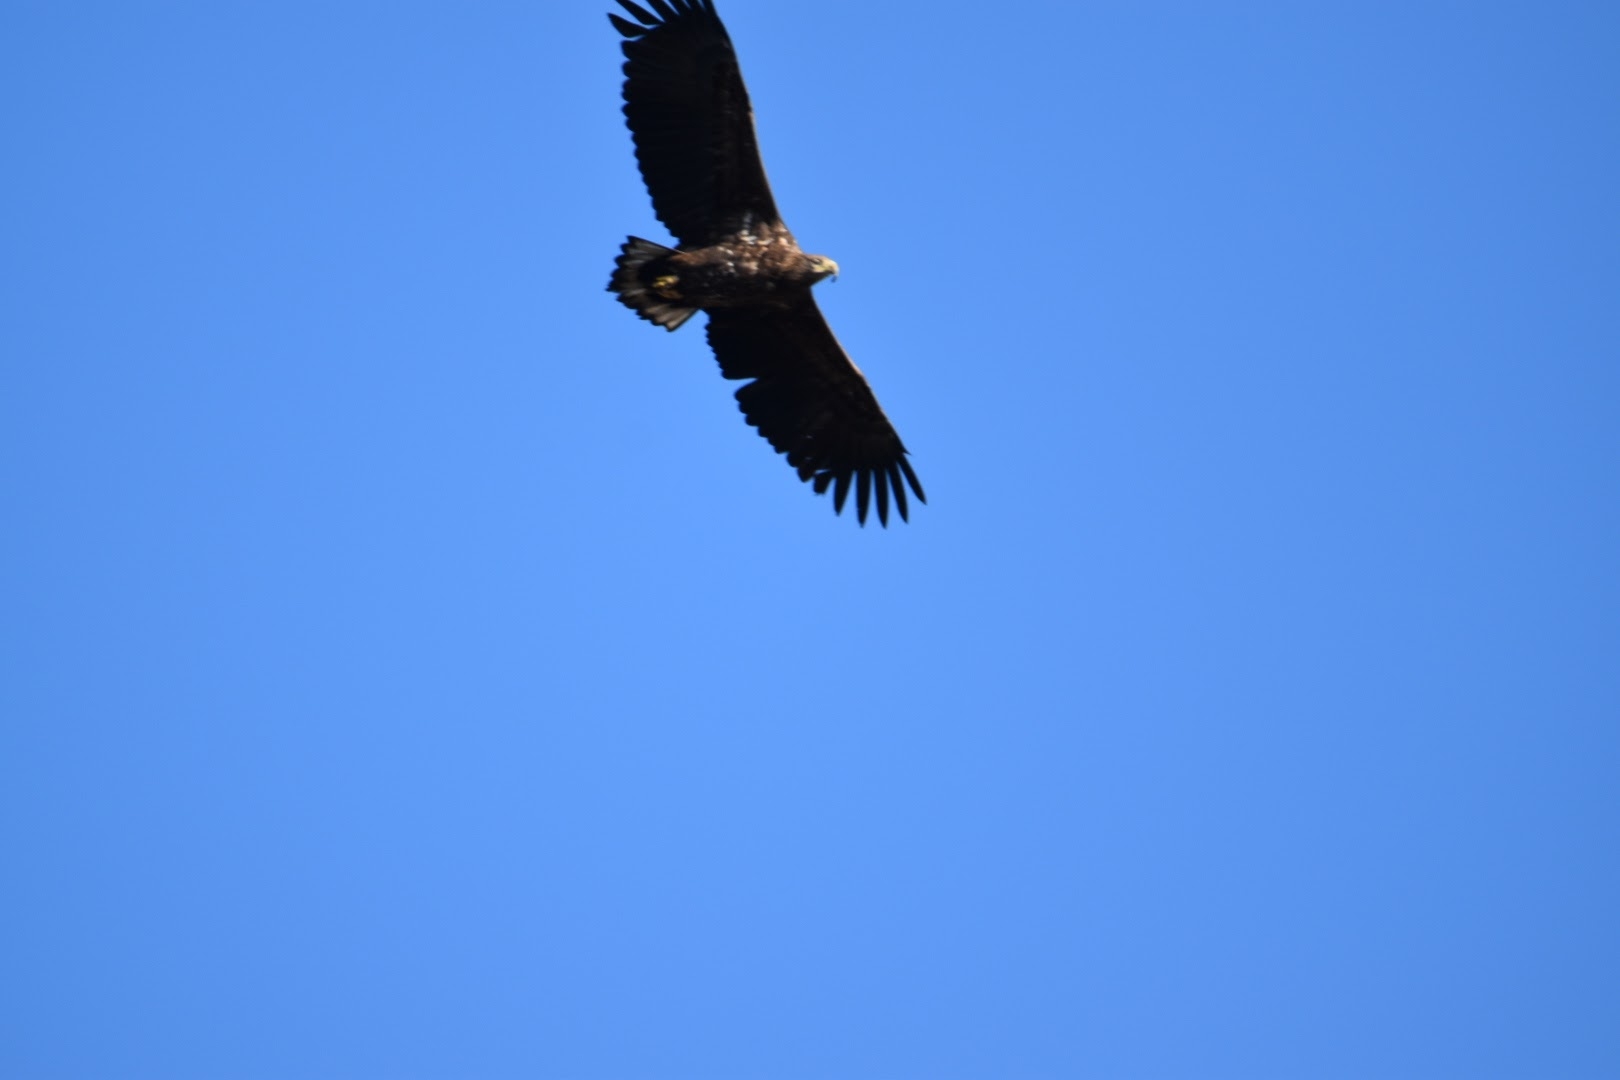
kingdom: Animalia
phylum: Chordata
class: Aves
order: Accipitriformes
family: Accipitridae
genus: Haliaeetus
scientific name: Haliaeetus albicilla
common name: Havørn
